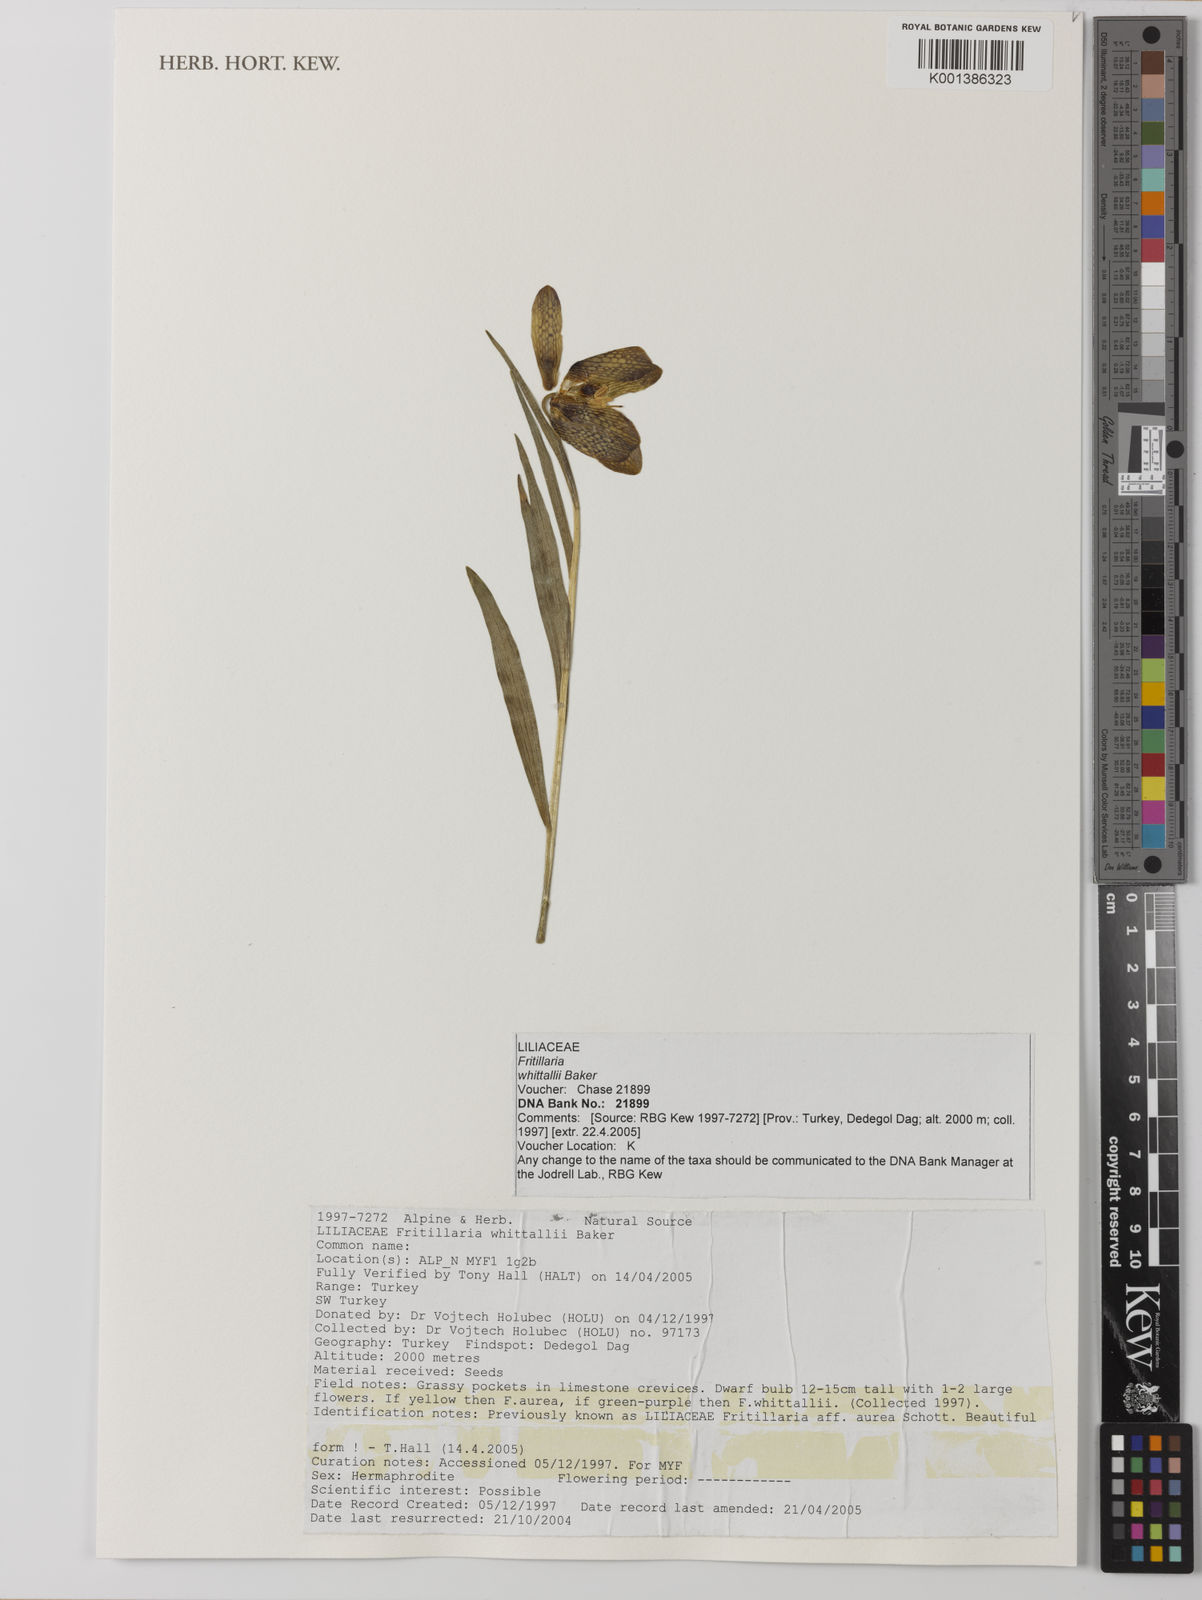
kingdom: Plantae
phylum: Tracheophyta
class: Liliopsida
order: Liliales
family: Liliaceae
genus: Fritillaria
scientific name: Fritillaria whittallii
